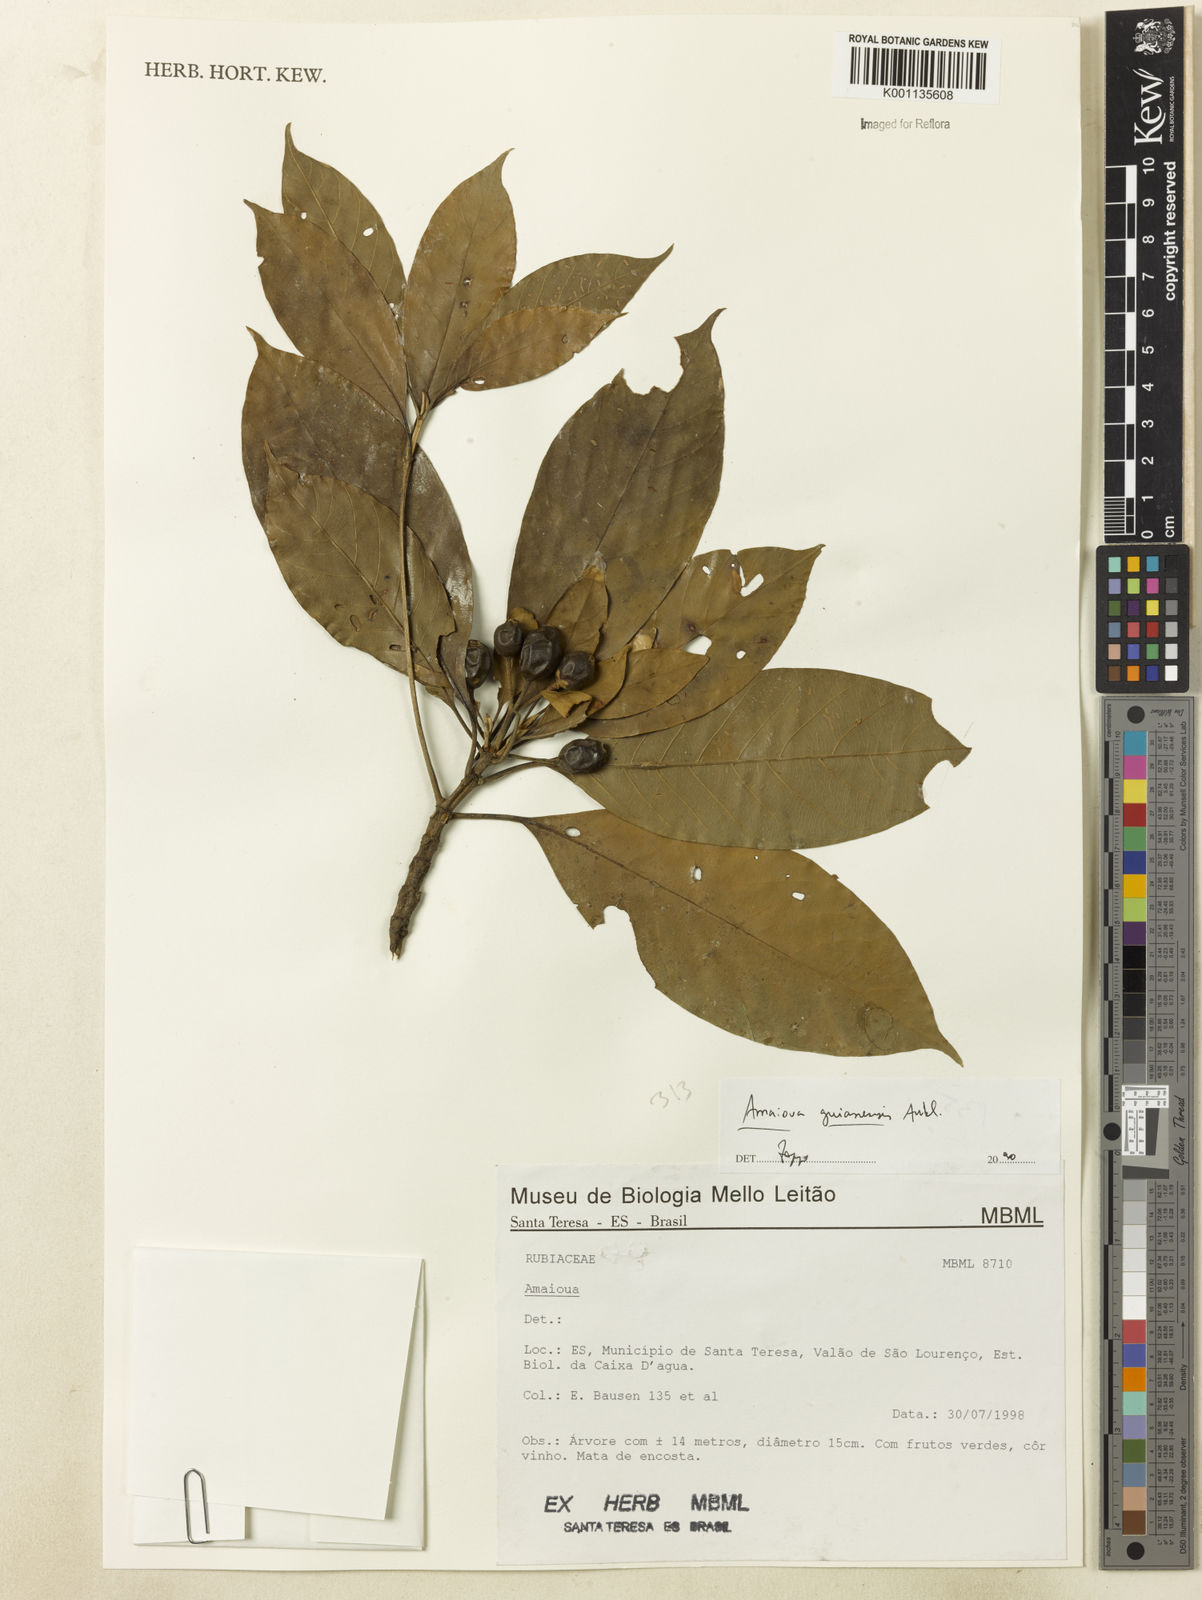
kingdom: Plantae
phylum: Tracheophyta
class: Magnoliopsida
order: Gentianales
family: Rubiaceae
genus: Amaioua
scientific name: Amaioua intermedia
